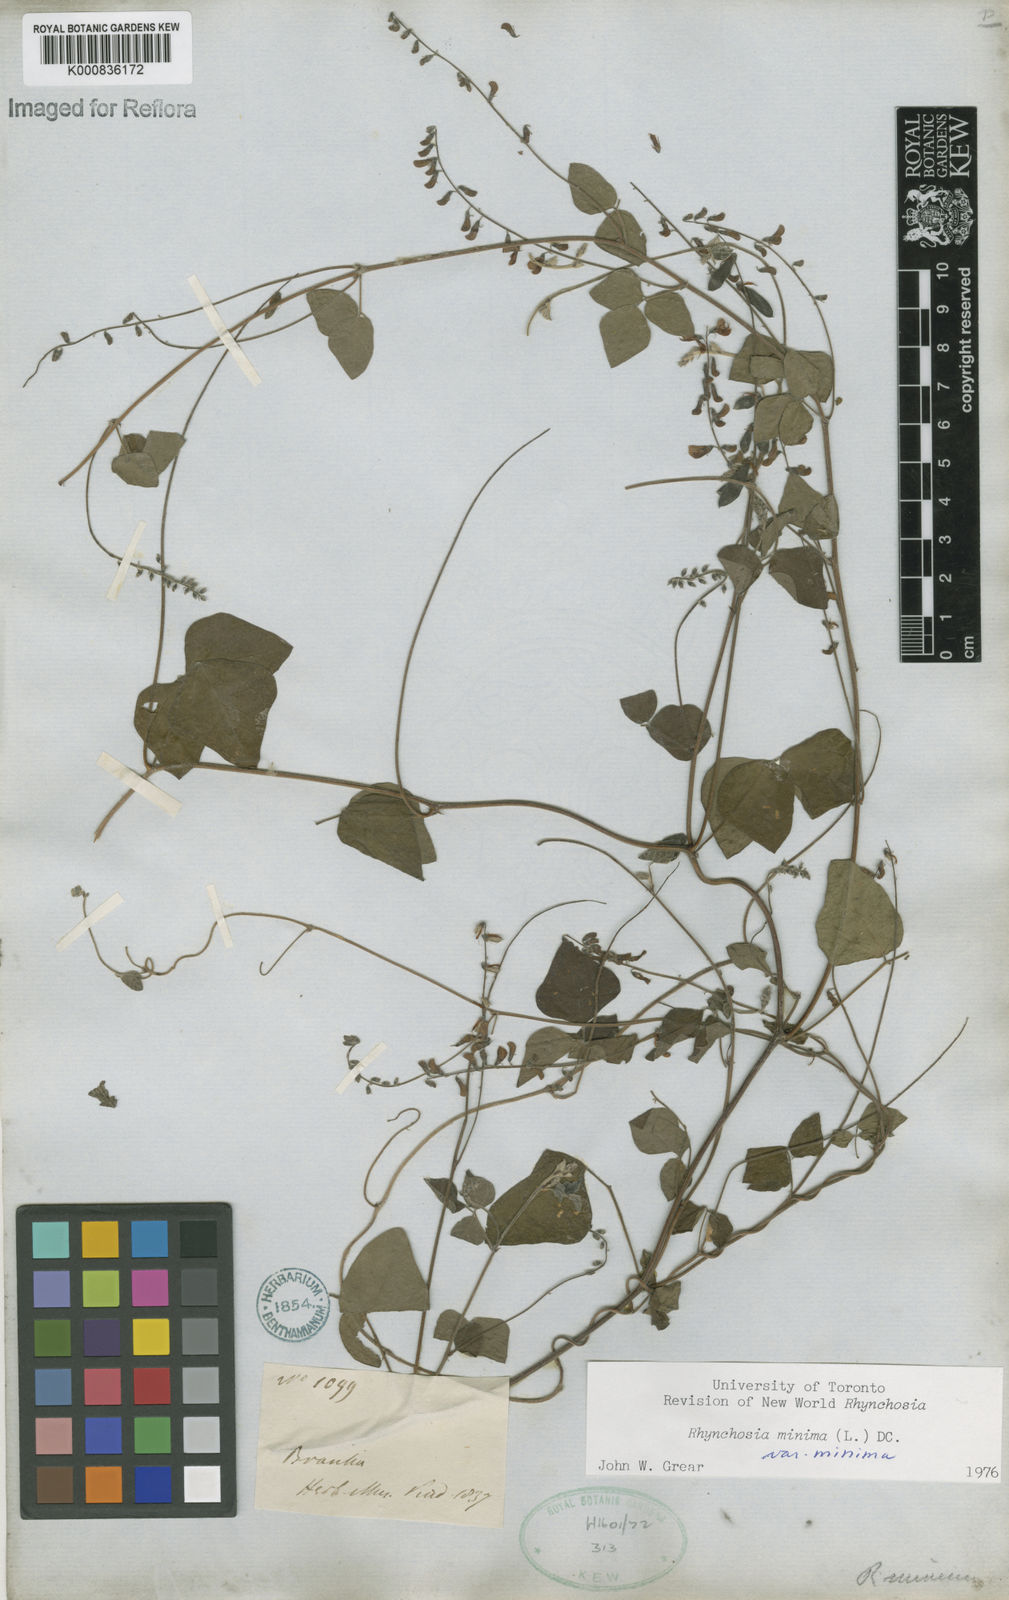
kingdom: Plantae
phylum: Tracheophyta
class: Magnoliopsida
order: Fabales
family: Fabaceae
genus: Rhynchosia
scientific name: Rhynchosia minima
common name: Least snoutbean
